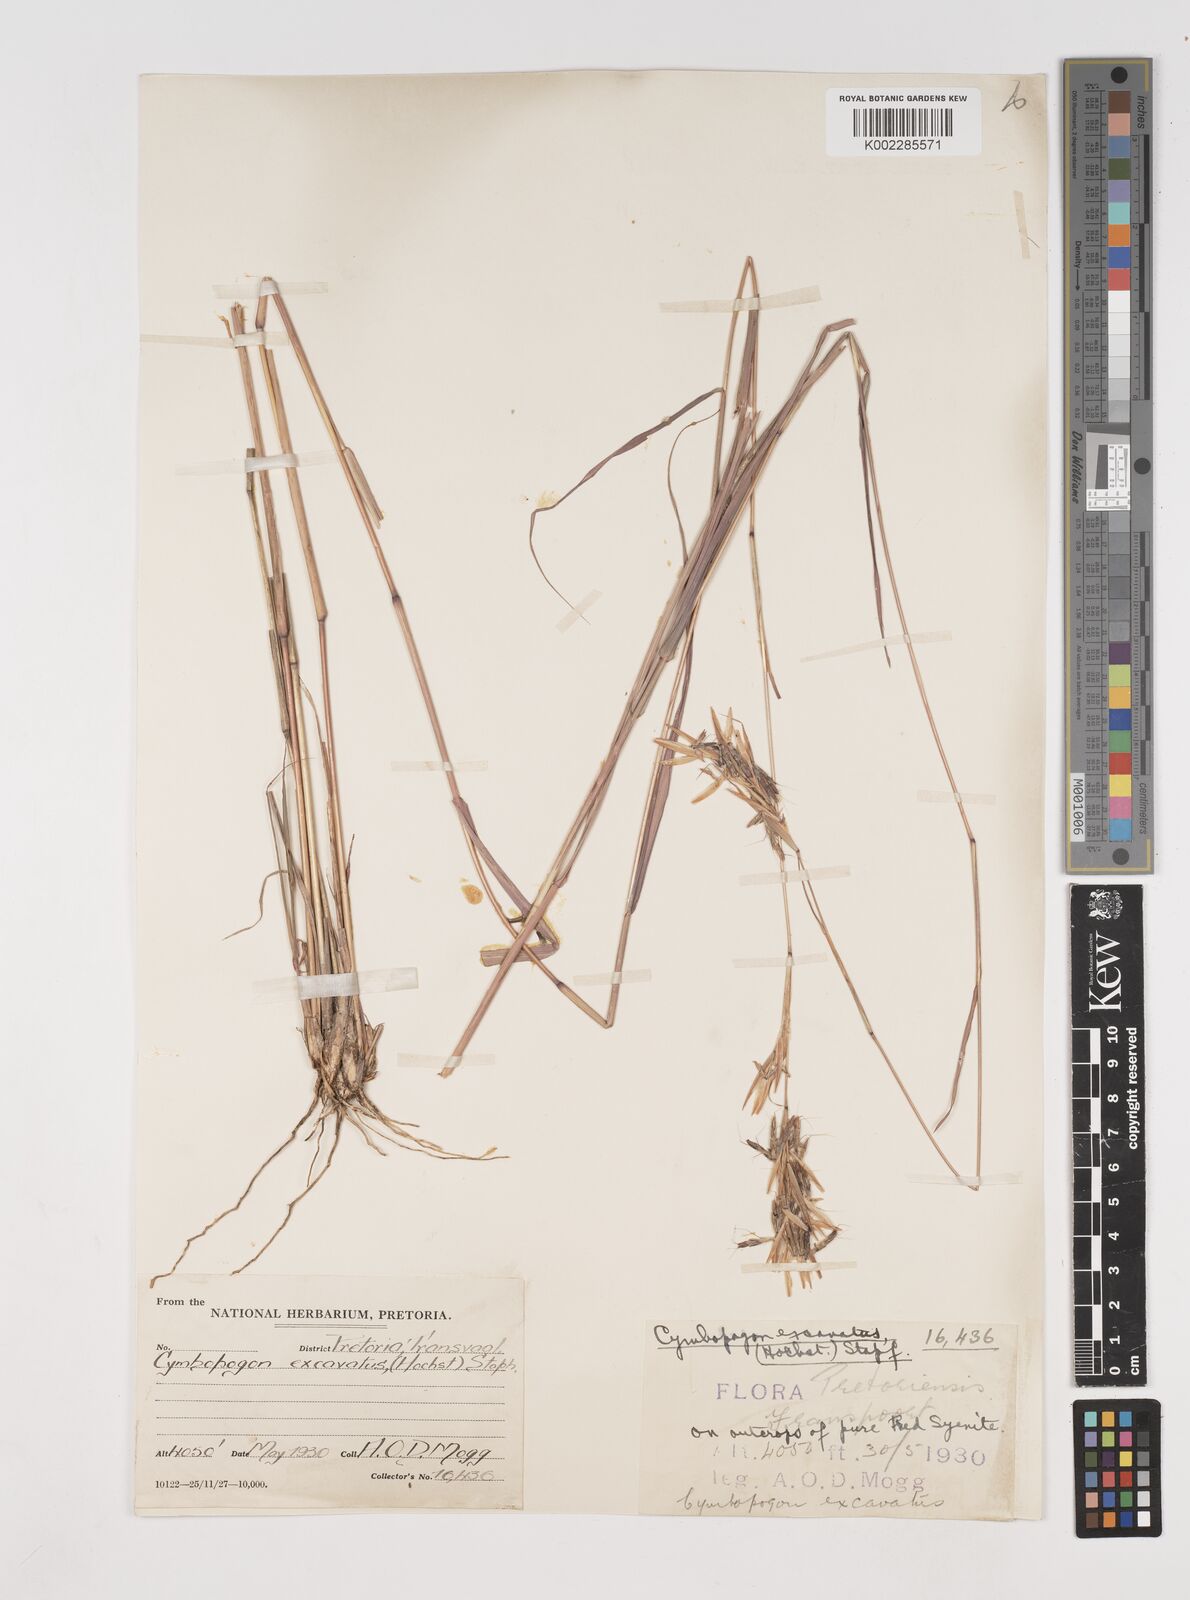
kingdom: Plantae
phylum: Tracheophyta
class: Liliopsida
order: Poales
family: Poaceae
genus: Cymbopogon
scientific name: Cymbopogon caesius
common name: Kachi grass
